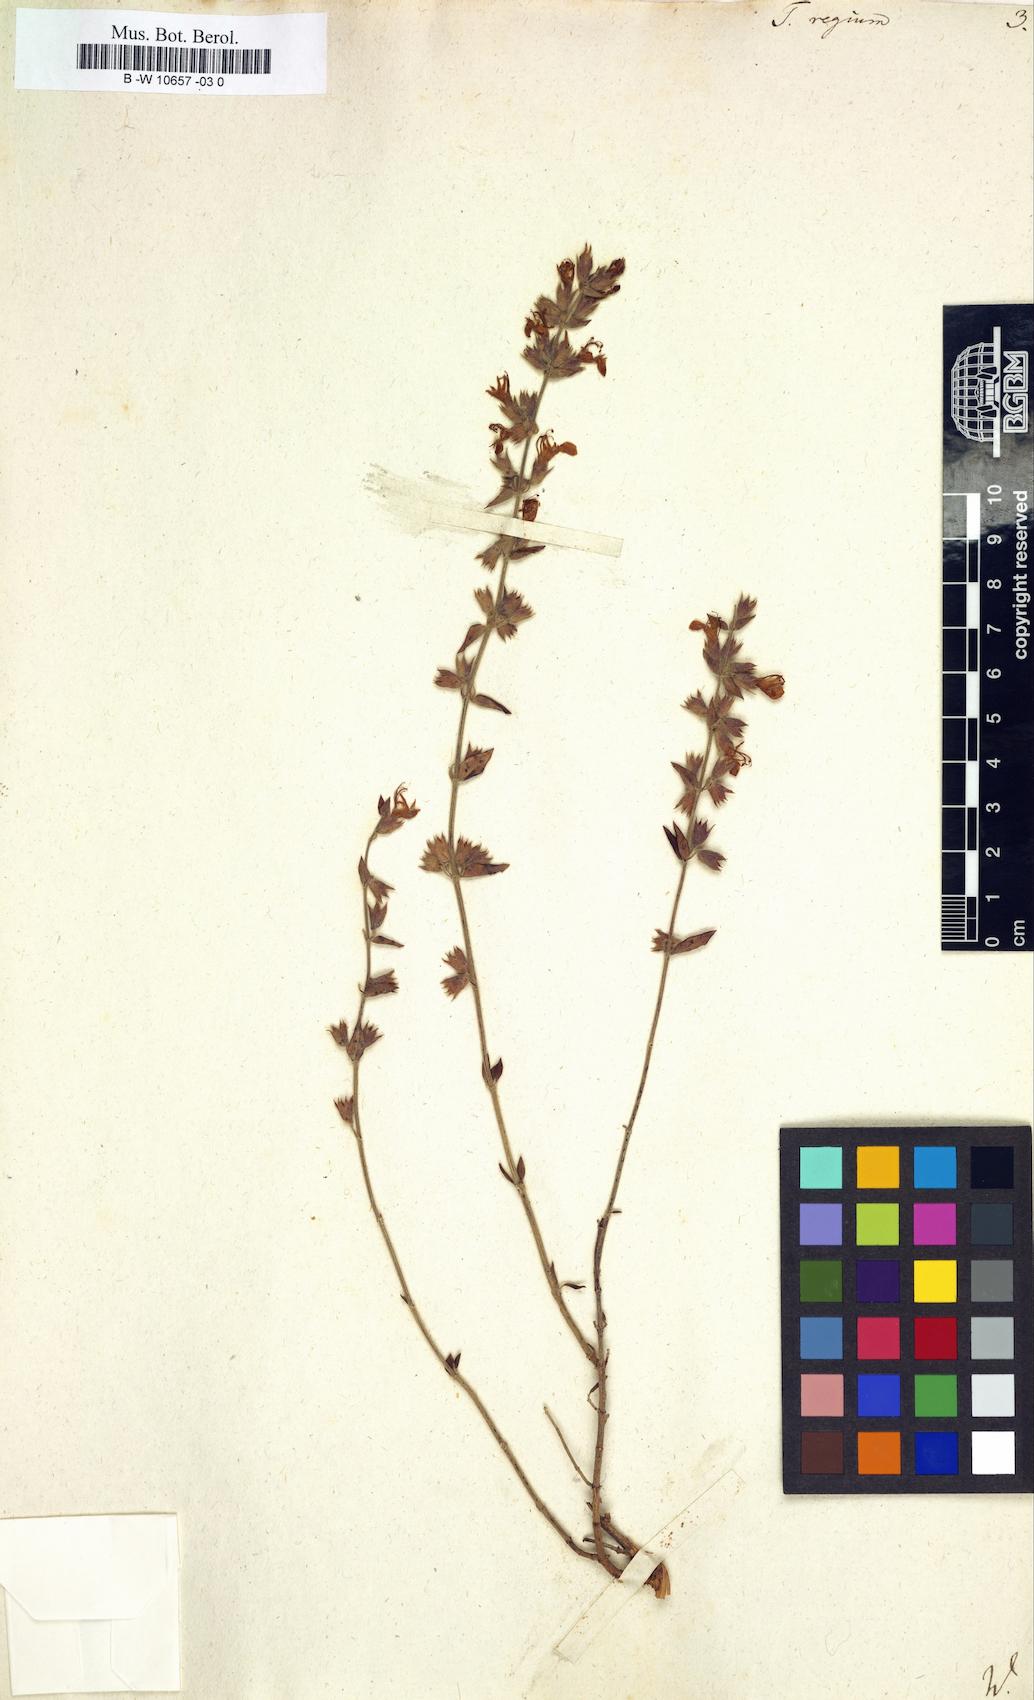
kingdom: Plantae
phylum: Tracheophyta
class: Magnoliopsida
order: Lamiales
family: Lamiaceae
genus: Teucrium
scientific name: Teucrium regium
